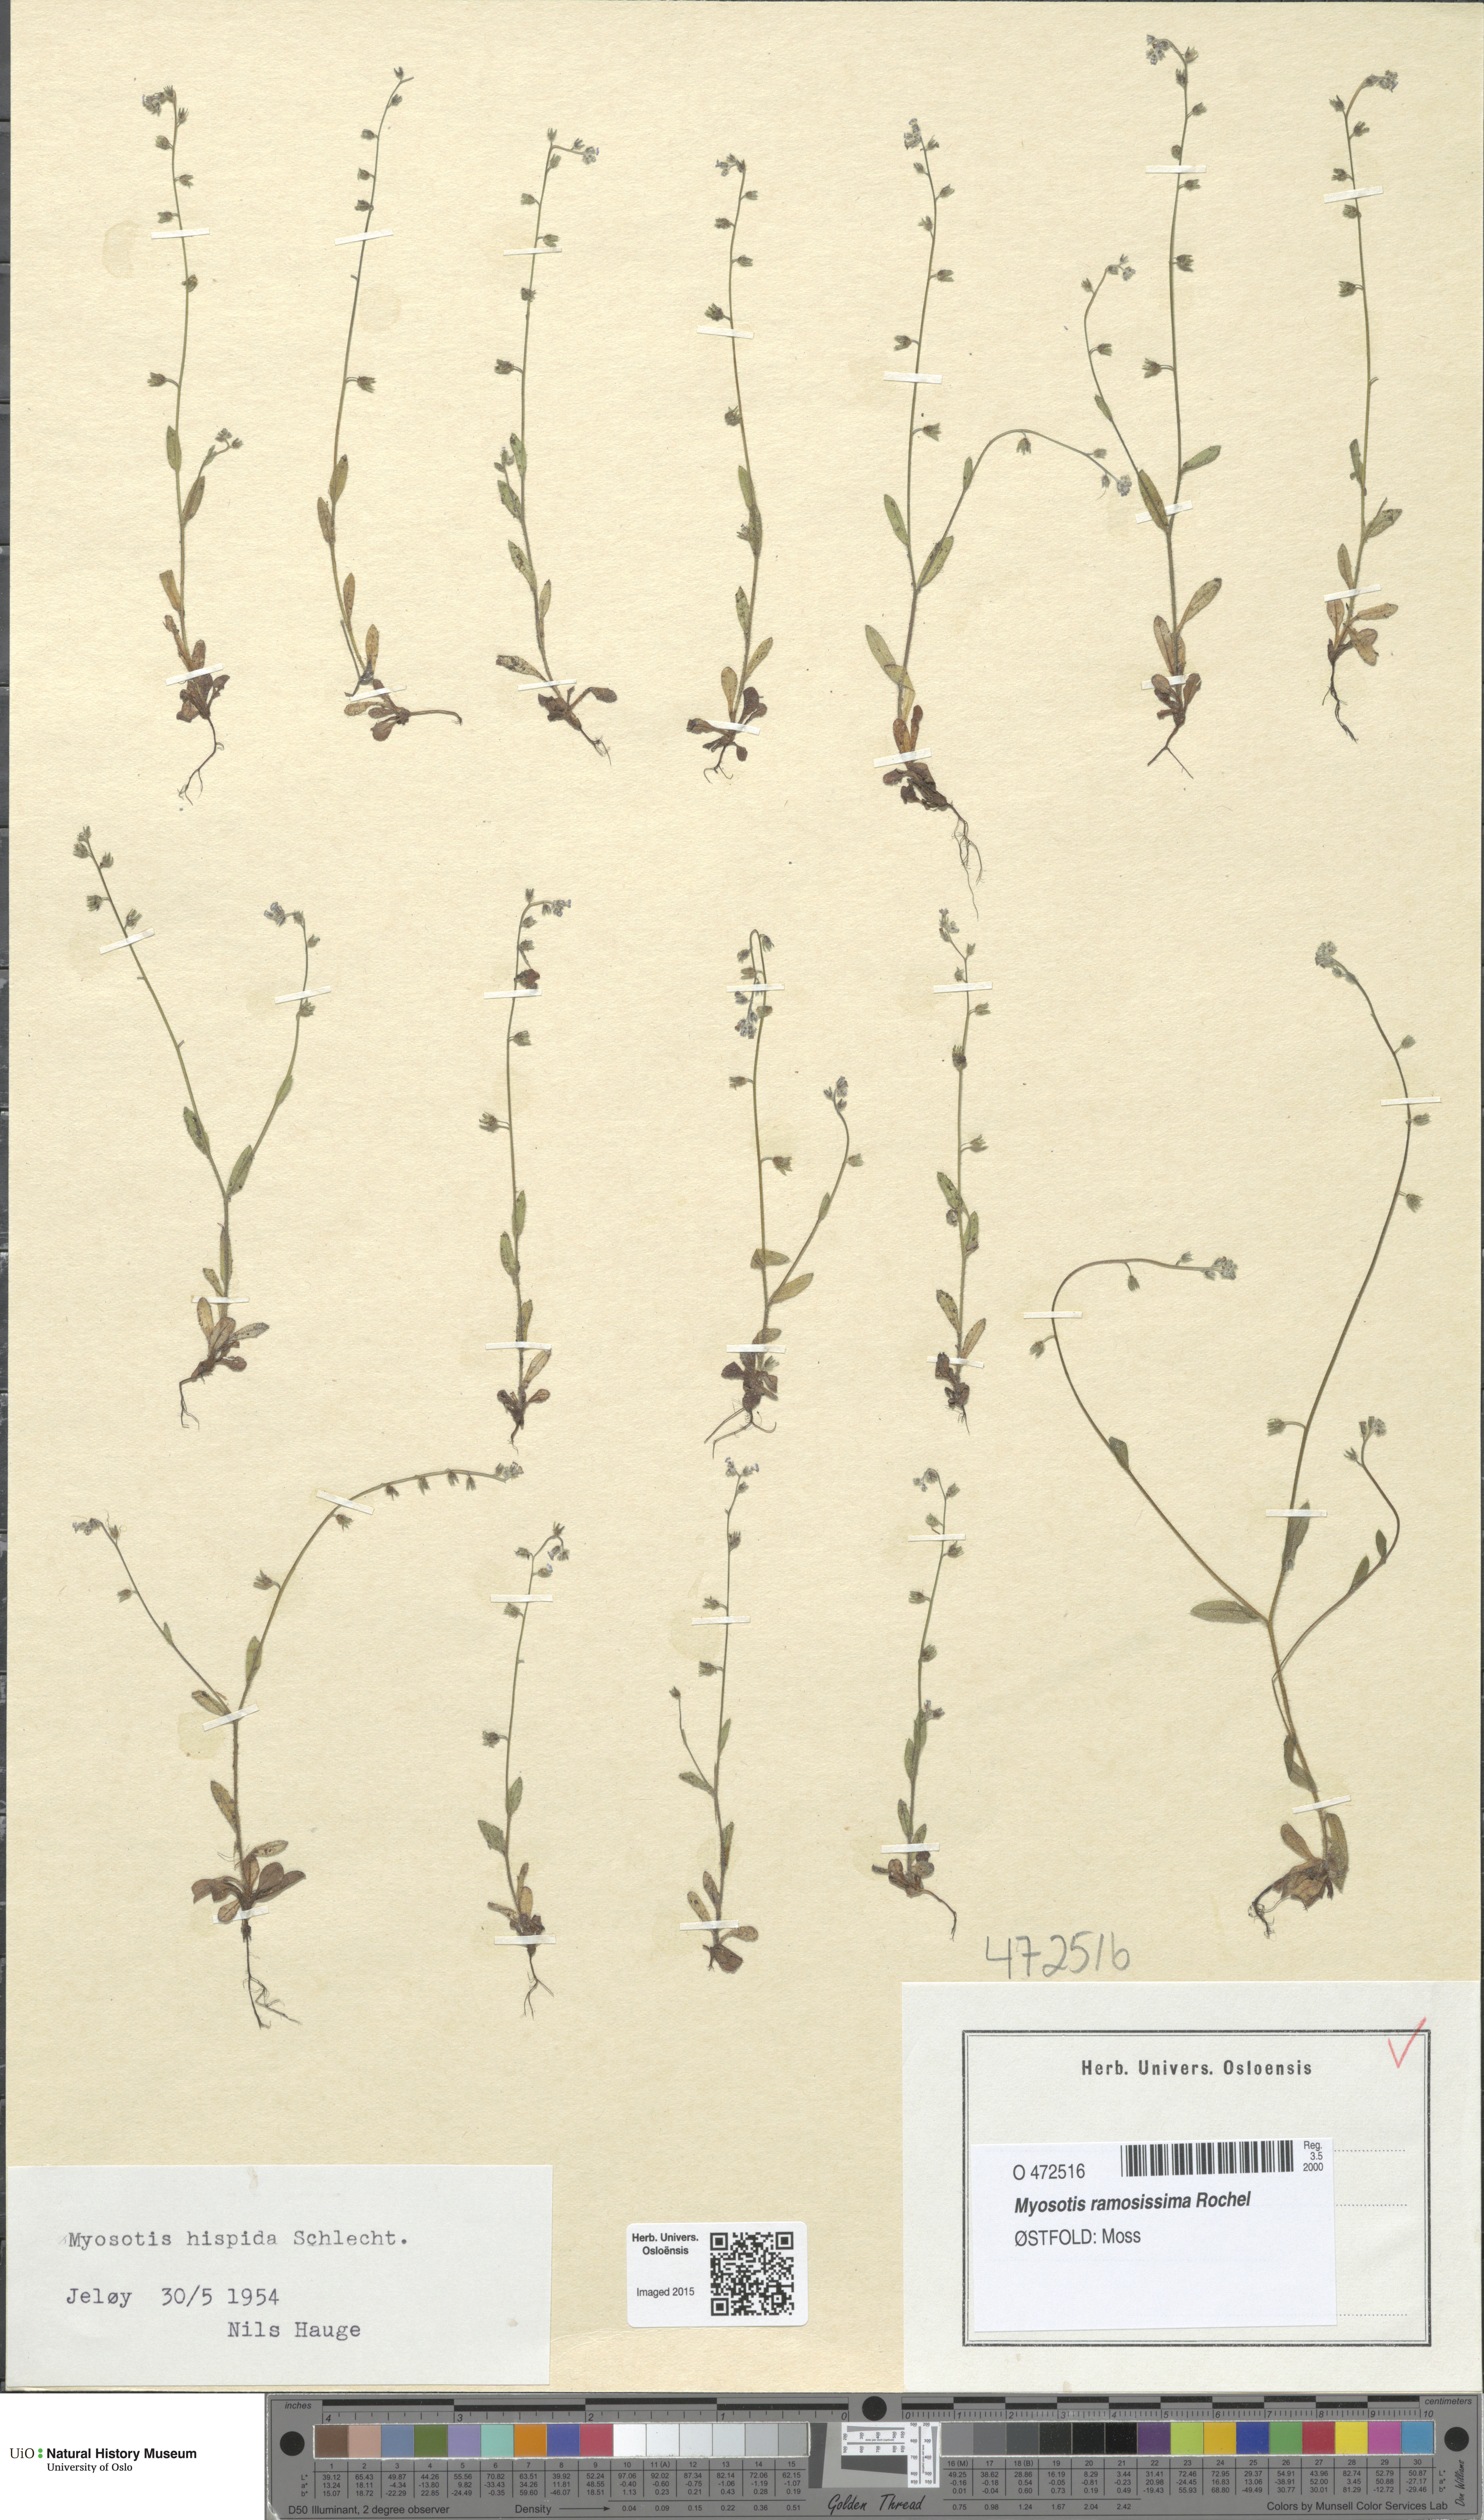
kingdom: Plantae
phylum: Tracheophyta
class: Magnoliopsida
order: Boraginales
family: Boraginaceae
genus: Myosotis
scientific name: Myosotis ramosissima
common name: Early forget-me-not
